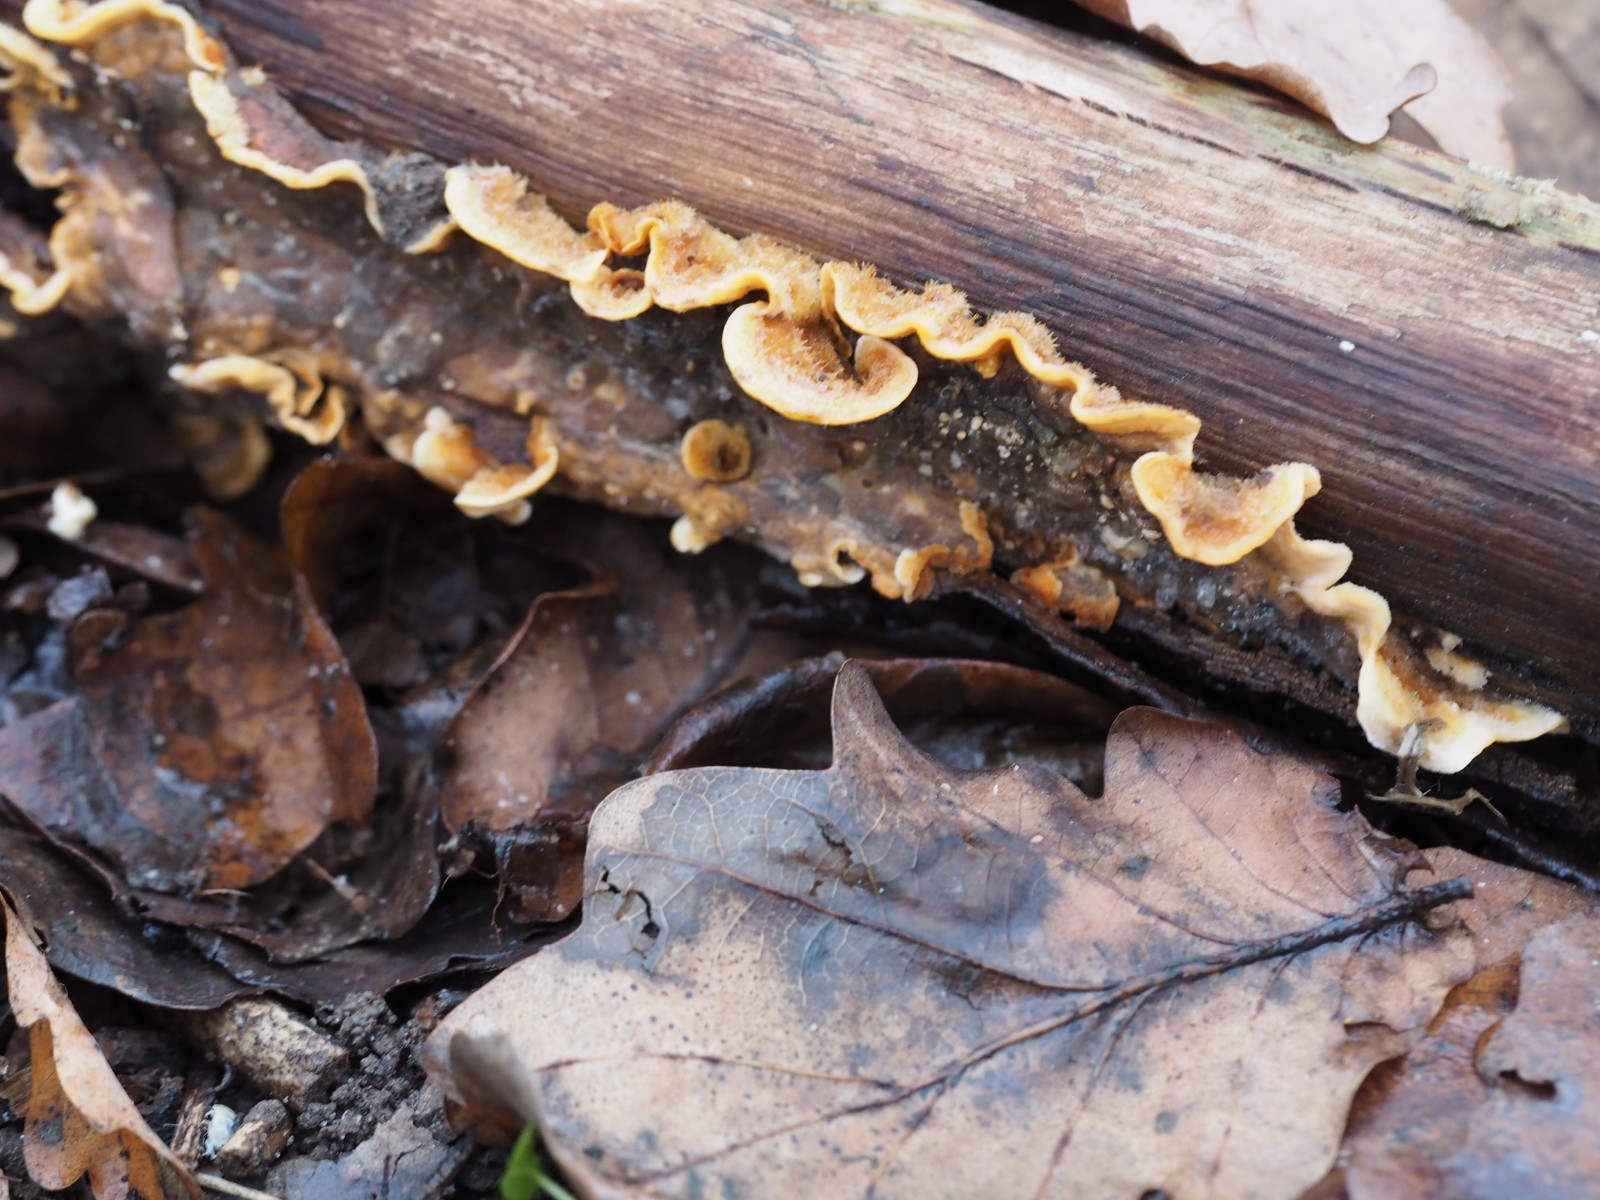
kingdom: Fungi
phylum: Basidiomycota
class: Agaricomycetes
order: Russulales
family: Stereaceae
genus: Stereum
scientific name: Stereum hirsutum
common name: håret lædersvamp
